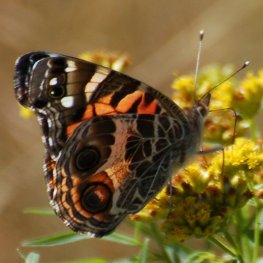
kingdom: Animalia
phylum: Arthropoda
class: Insecta
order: Lepidoptera
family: Nymphalidae
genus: Vanessa
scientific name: Vanessa virginiensis
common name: American Lady
